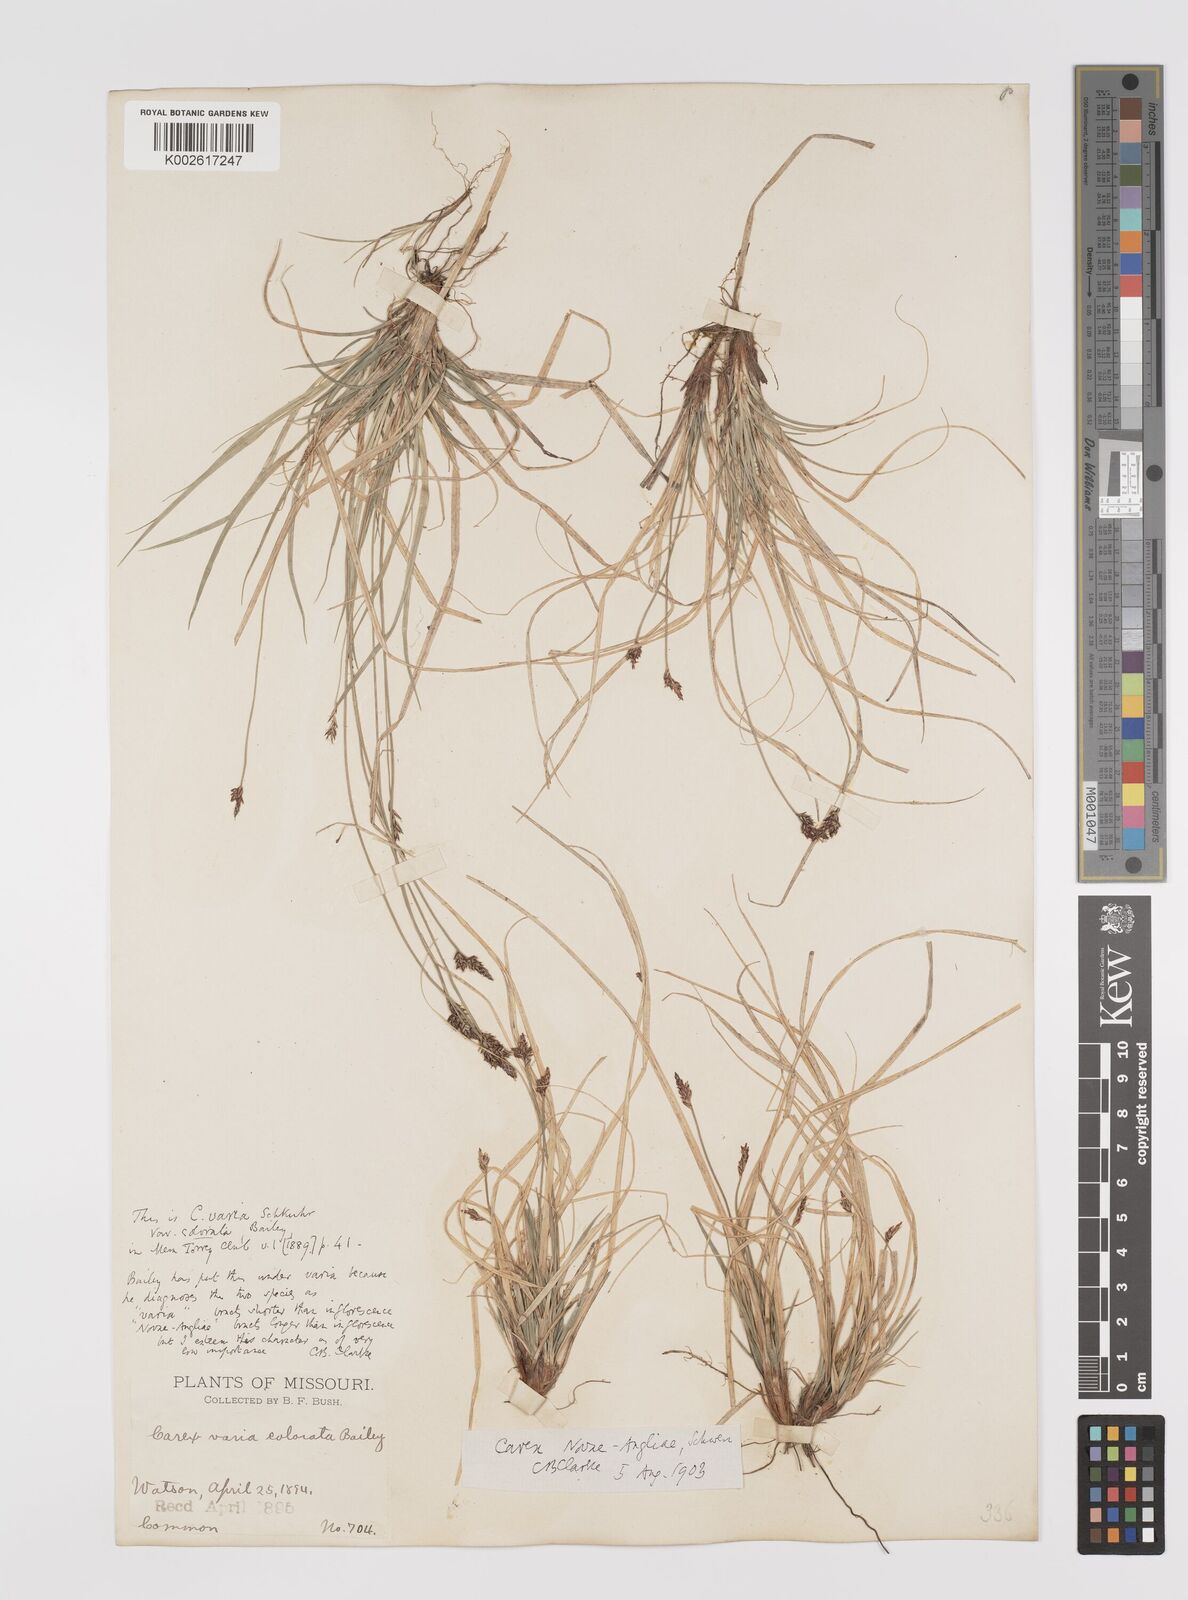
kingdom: Plantae
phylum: Tracheophyta
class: Liliopsida
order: Poales
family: Cyperaceae
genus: Carex
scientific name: Carex albicans
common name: Bellow-beaked sedge
